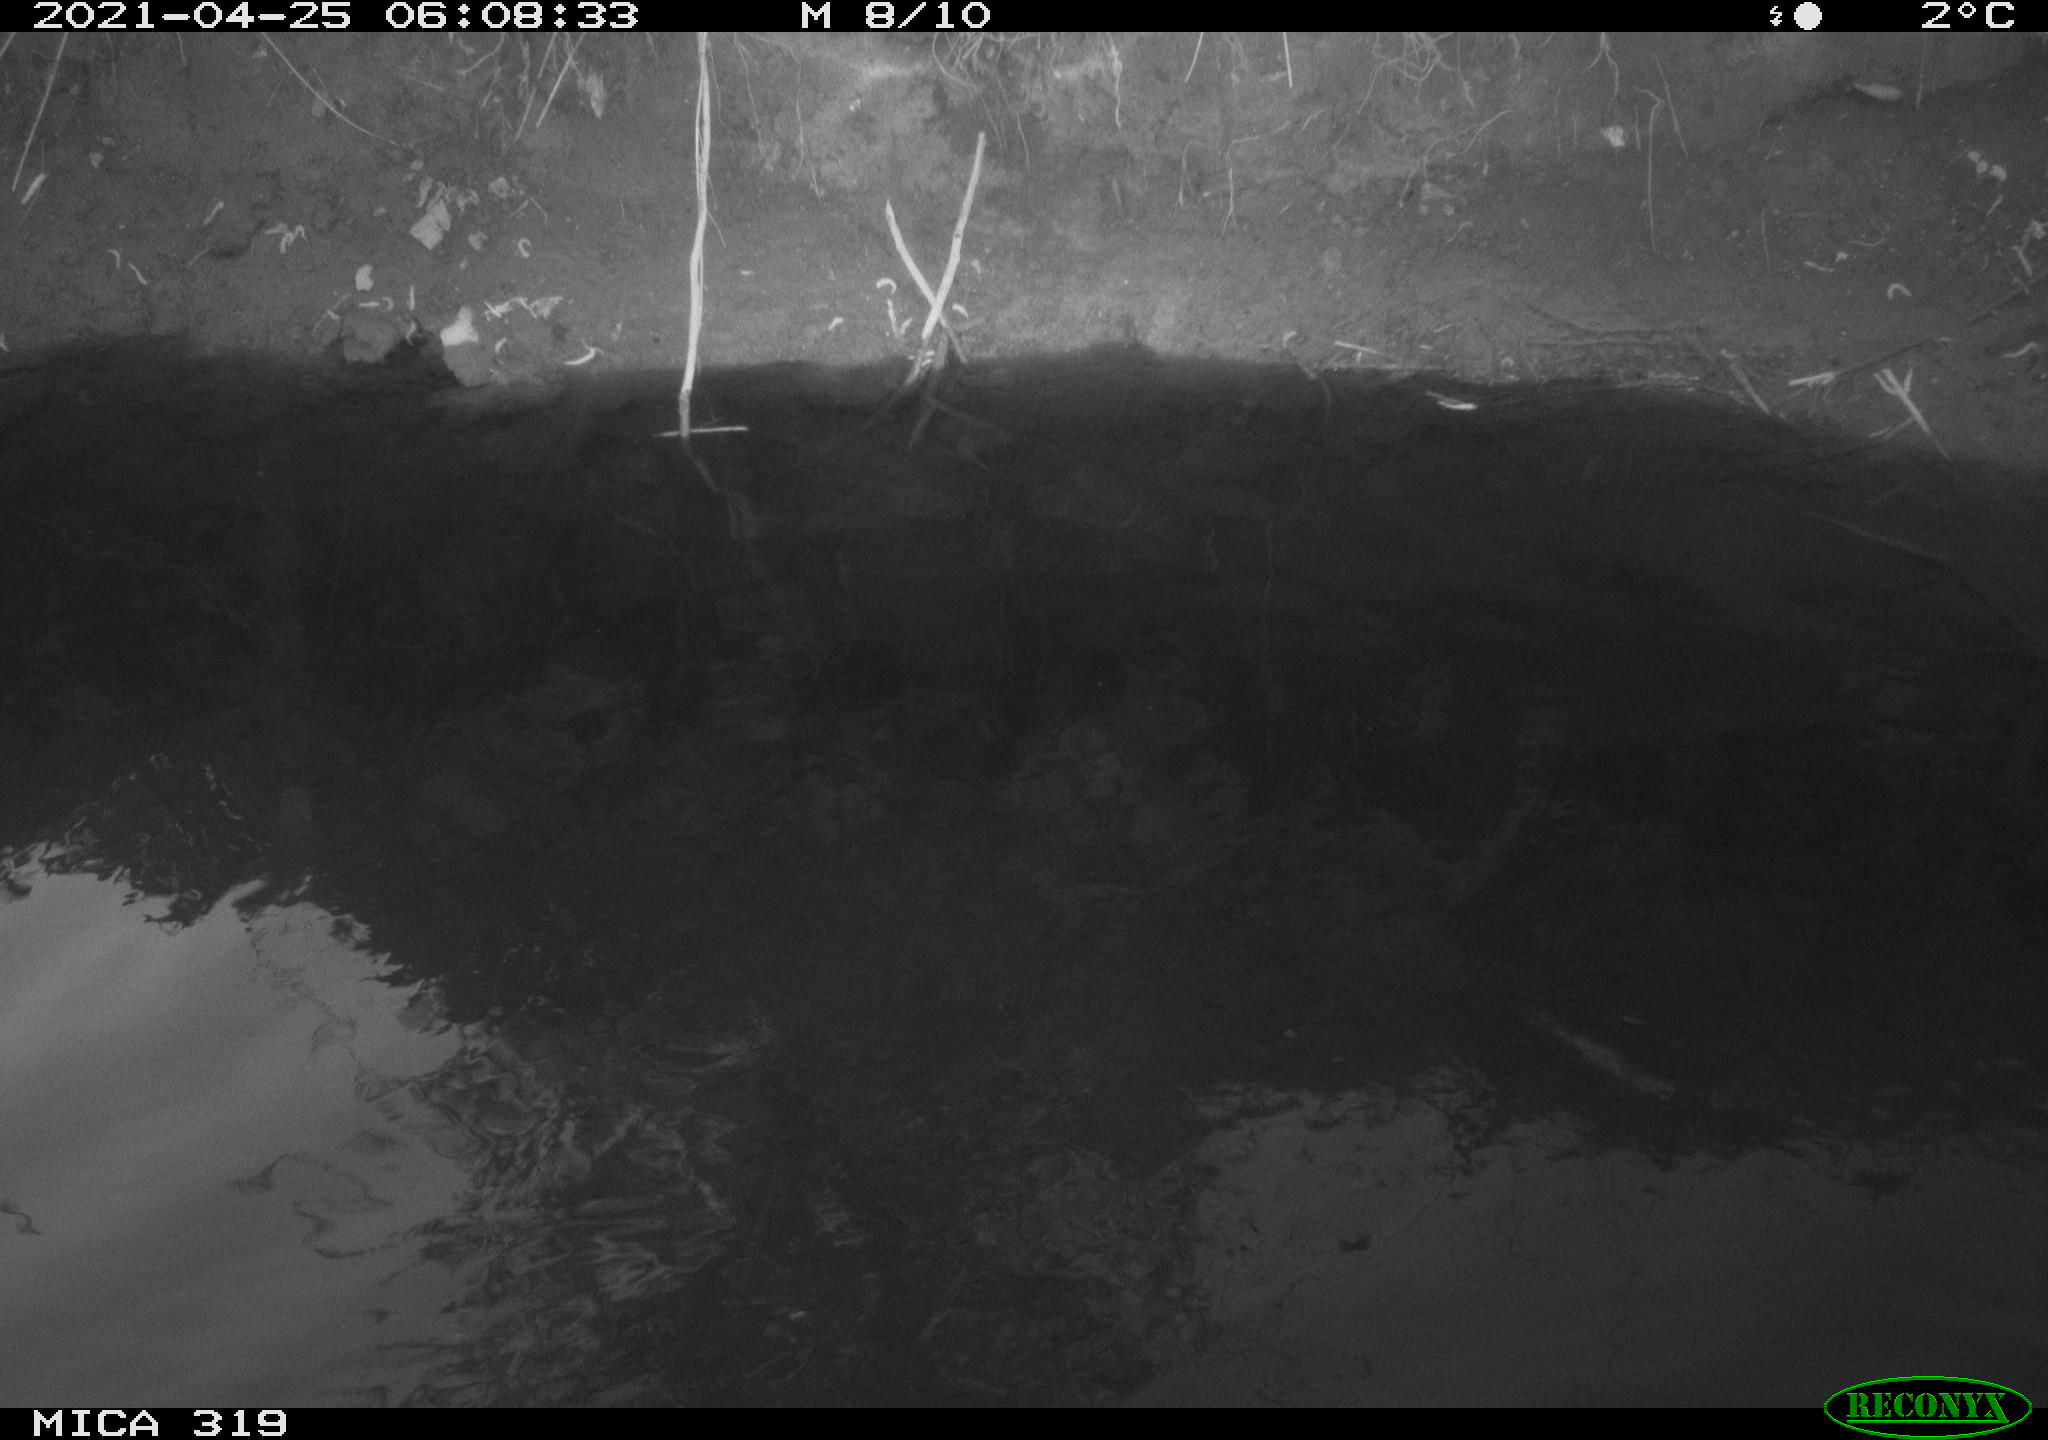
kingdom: Animalia
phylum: Chordata
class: Aves
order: Anseriformes
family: Anatidae
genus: Anas
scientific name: Anas platyrhynchos
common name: Mallard
